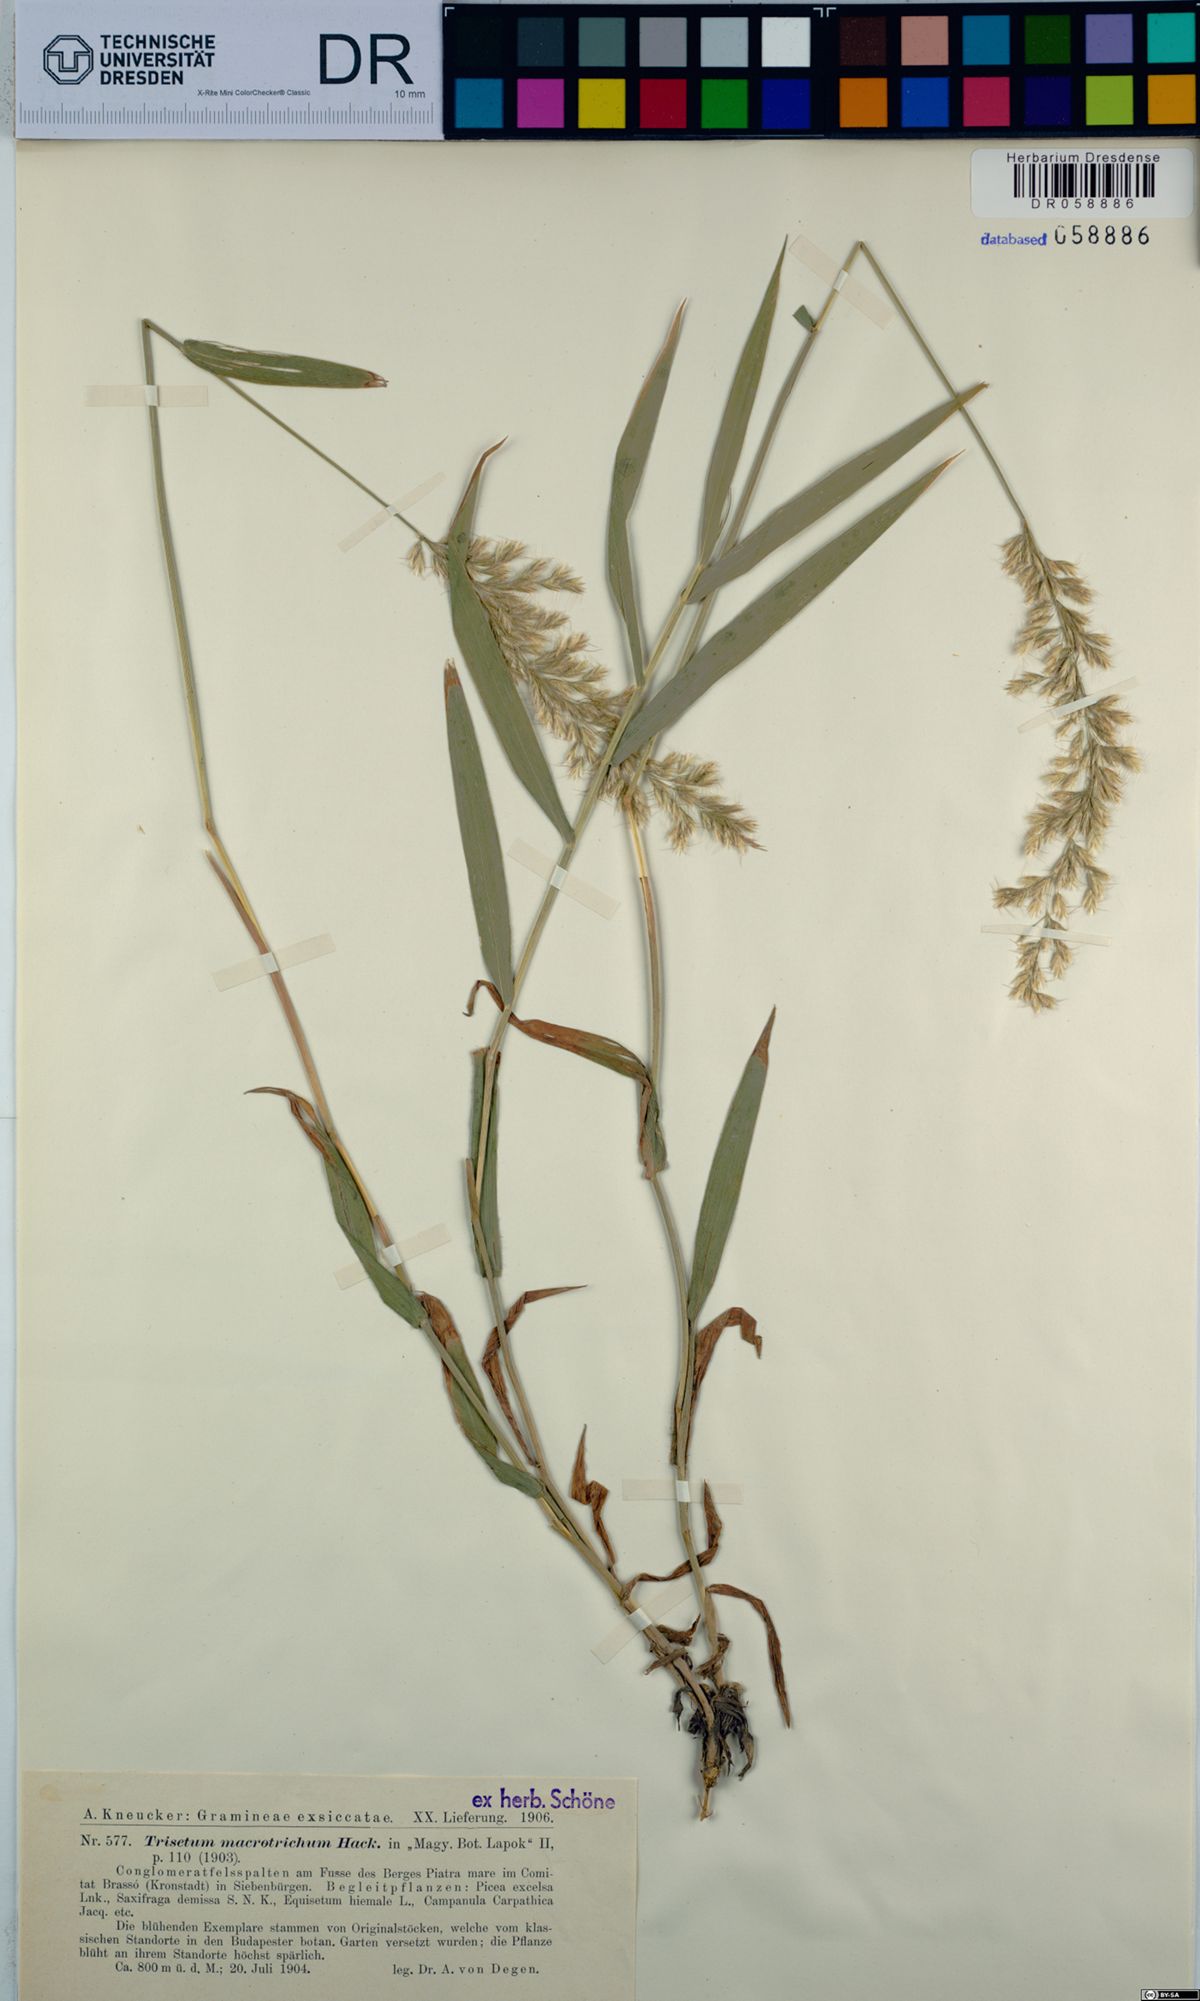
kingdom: Plantae
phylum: Tracheophyta
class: Liliopsida
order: Poales
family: Poaceae
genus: Trisetum
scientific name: Trisetum macrotrichum
